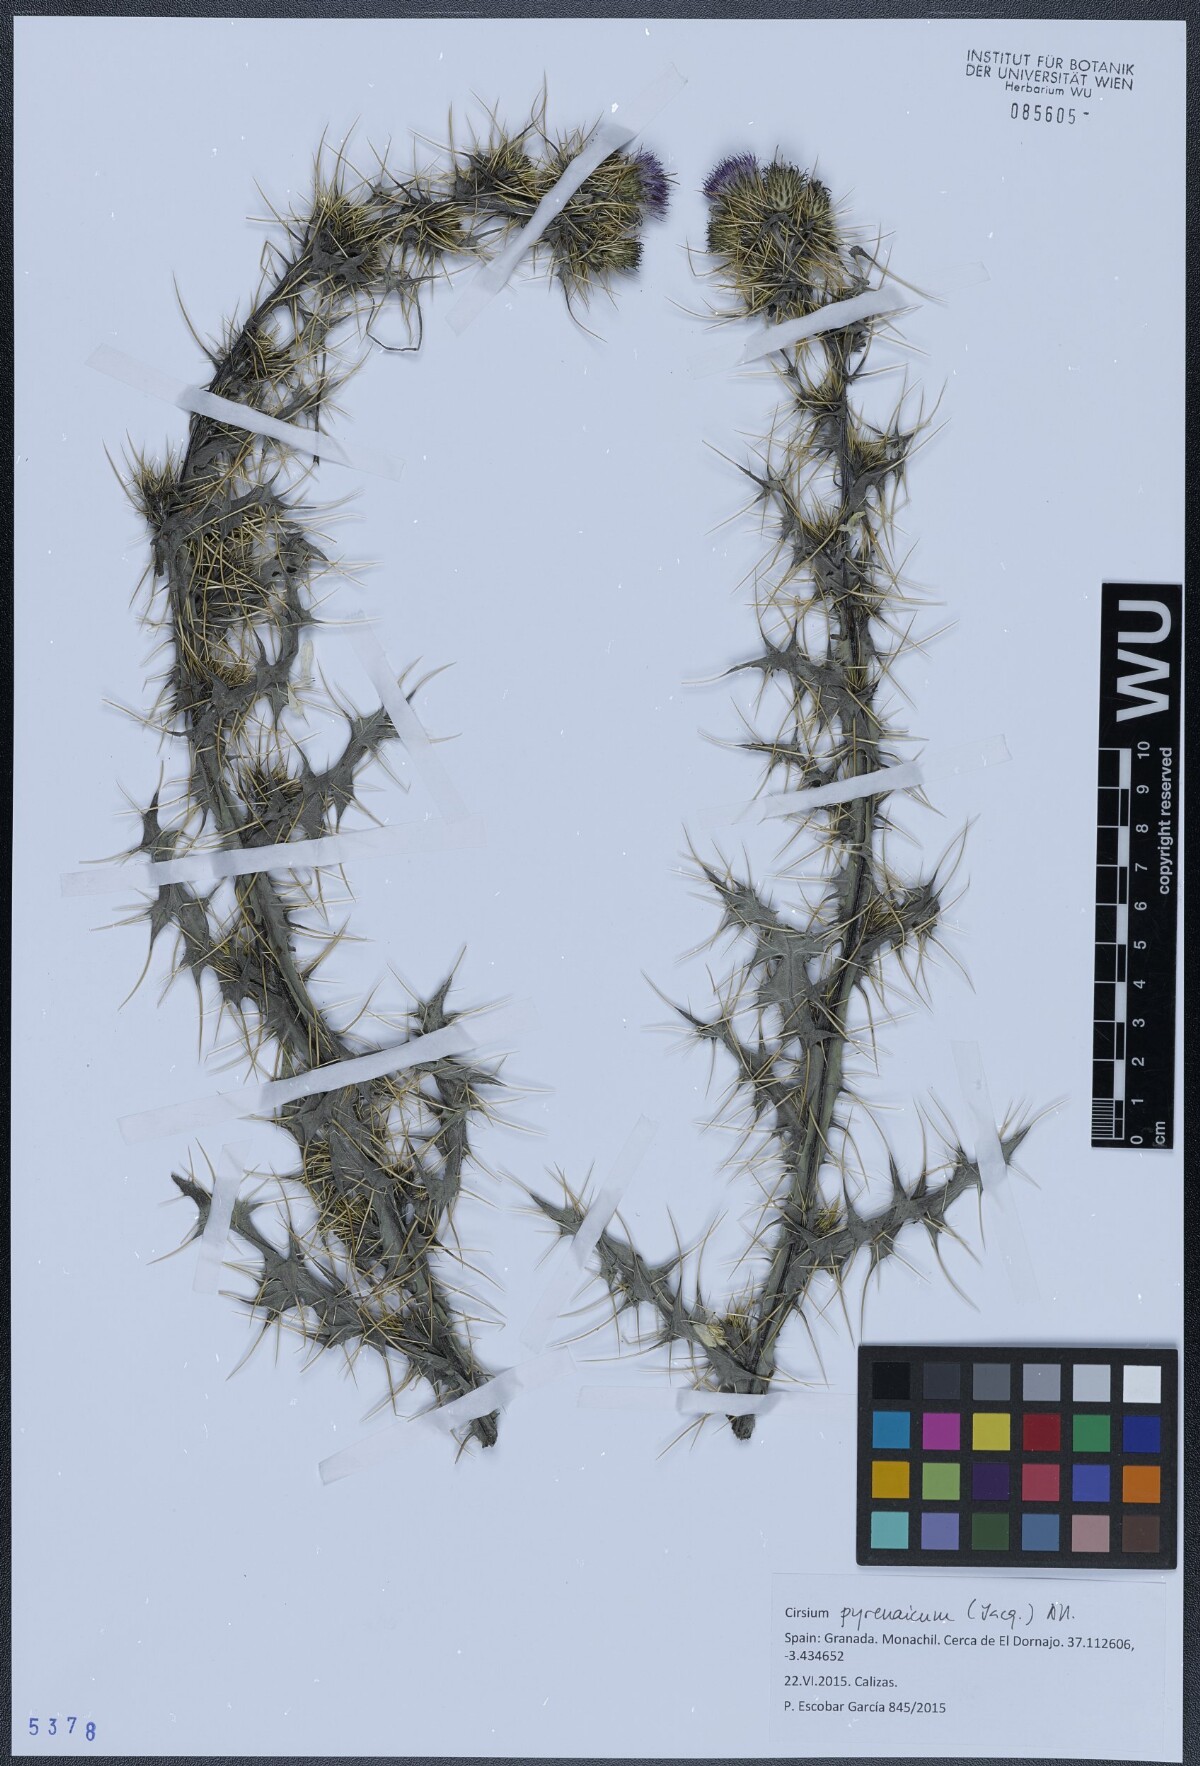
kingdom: Plantae
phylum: Tracheophyta
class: Magnoliopsida
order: Asterales
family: Asteraceae
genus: Cirsium
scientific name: Cirsium pyrenaicum
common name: Pyrenean thistle
